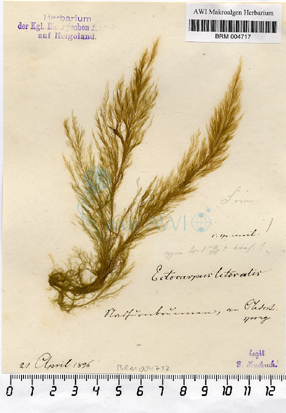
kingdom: Chromista
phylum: Ochrophyta
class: Phaeophyceae
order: Ectocarpales
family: Acinetosporaceae
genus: Pylaiella
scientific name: Pylaiella littoralis
